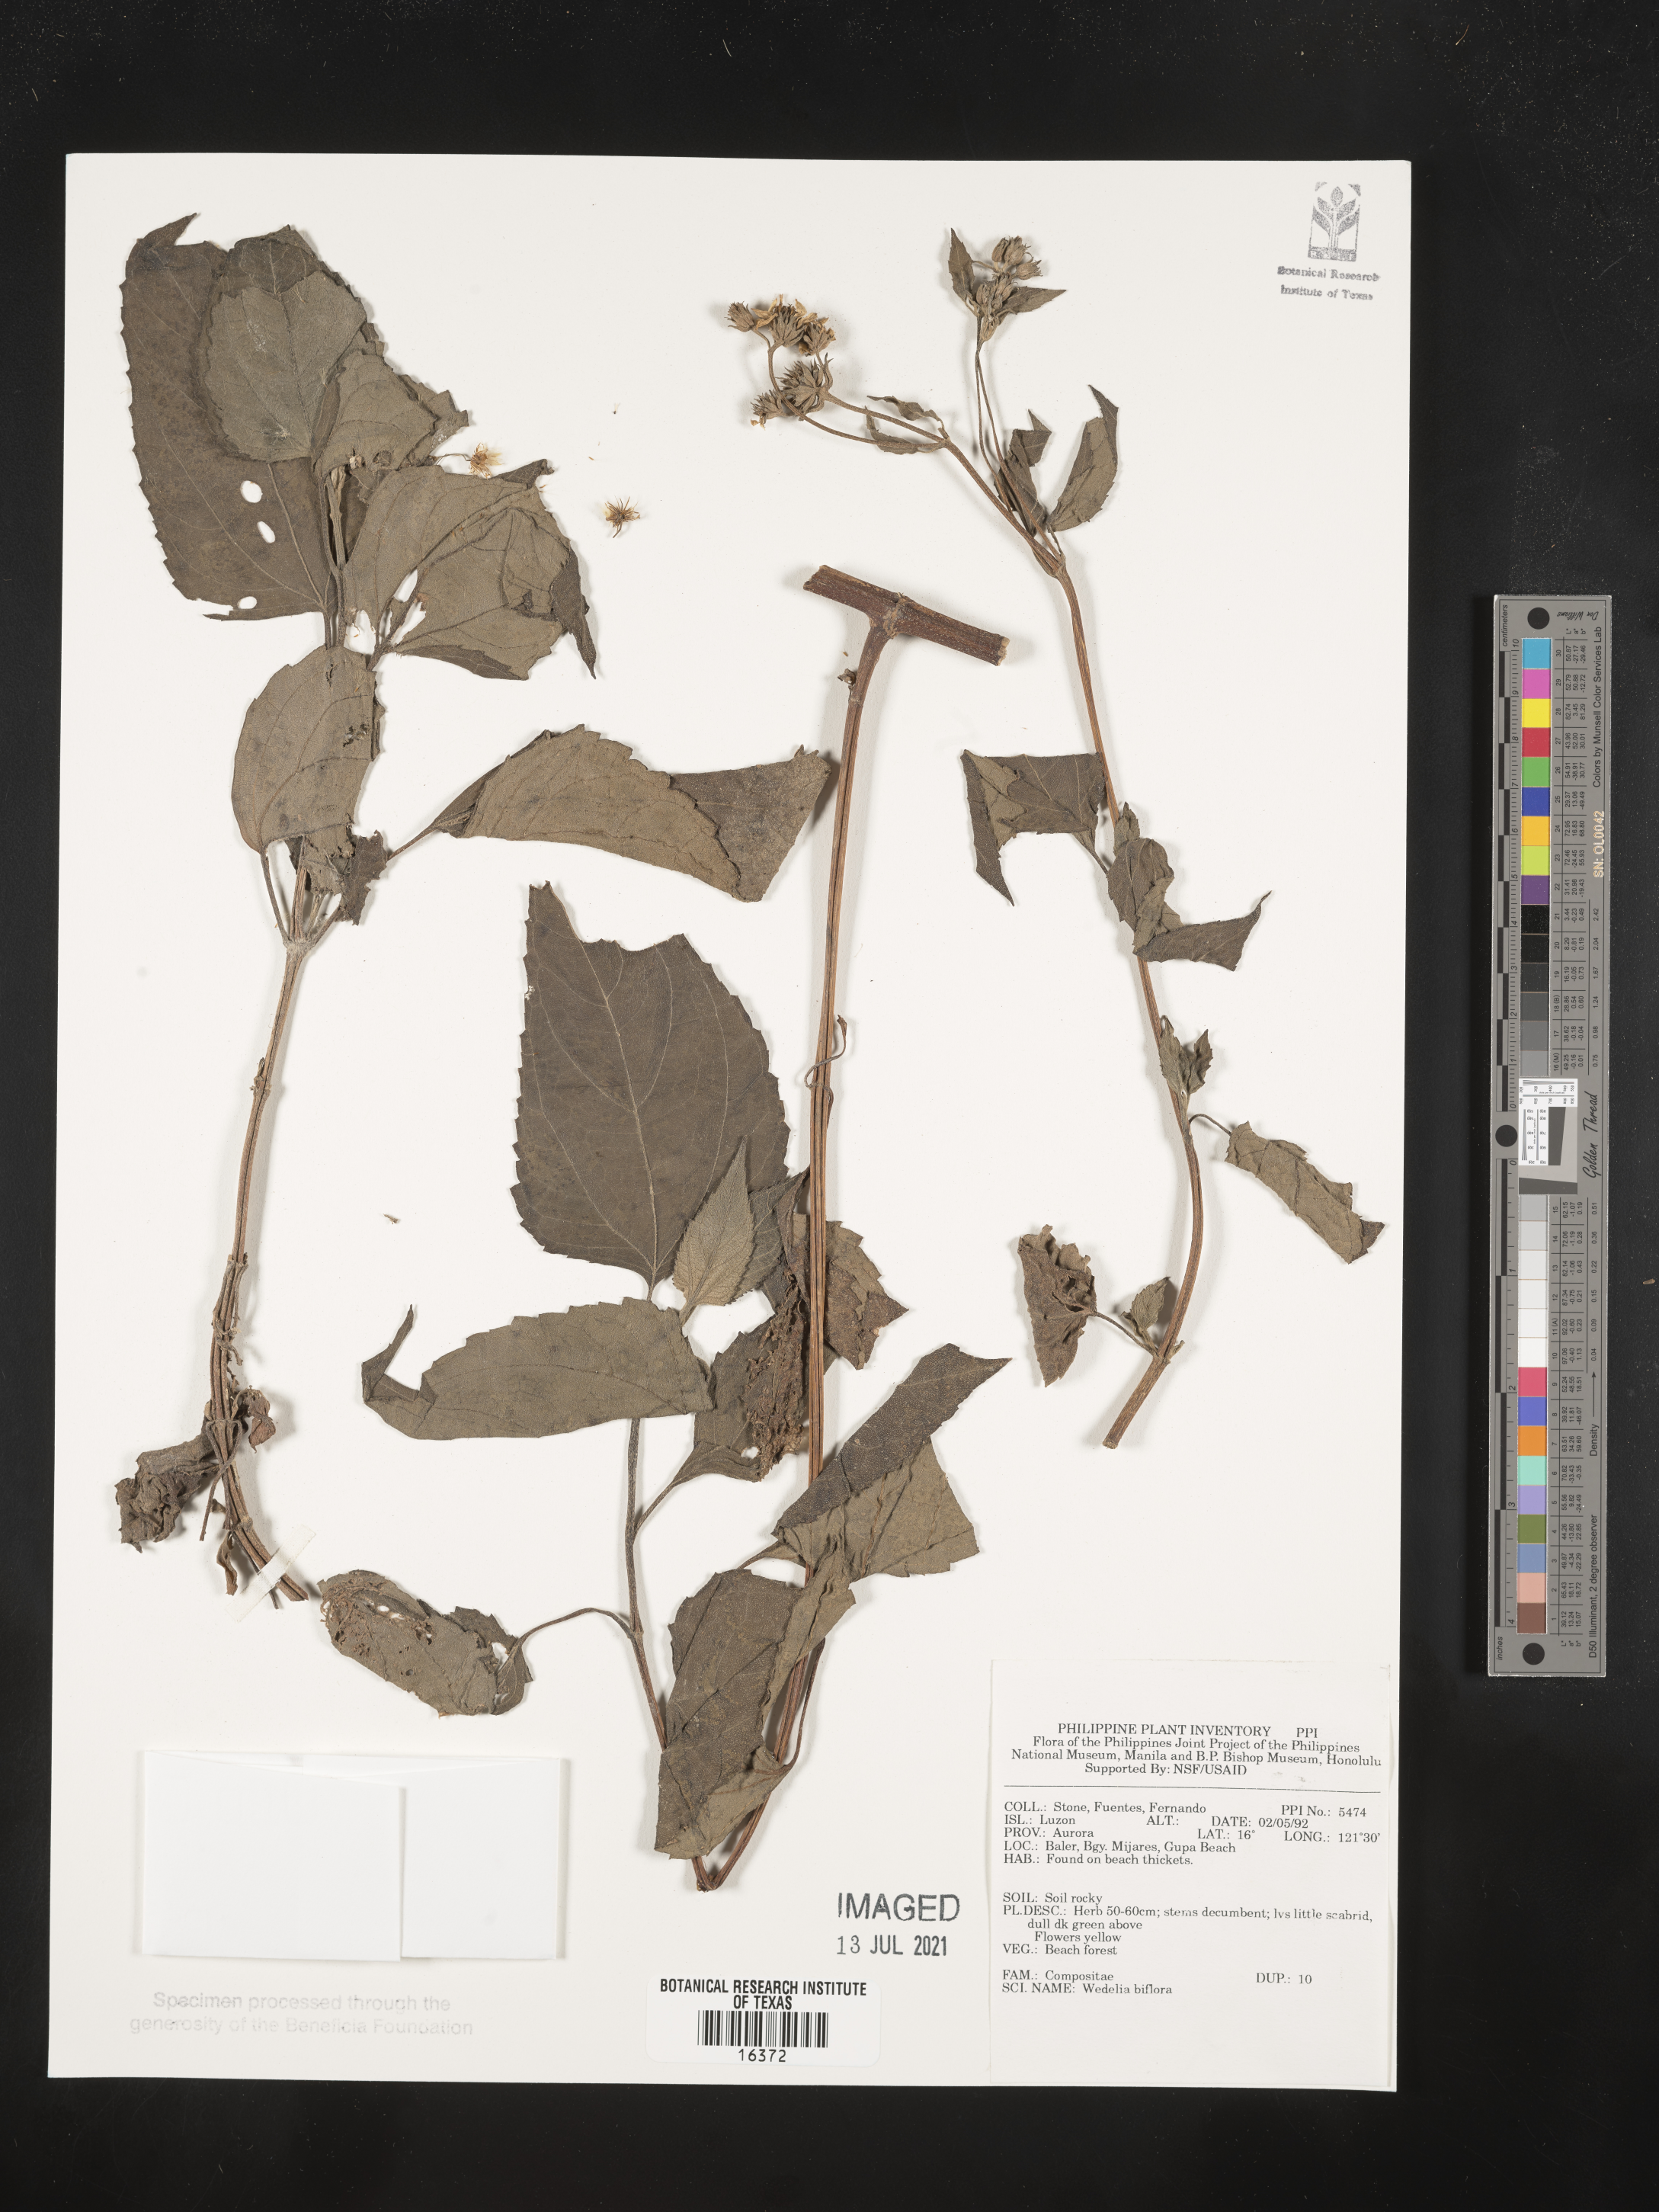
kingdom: Plantae
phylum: Tracheophyta
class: Magnoliopsida
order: Asterales
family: Asteraceae
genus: Wollastonia
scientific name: Wollastonia biflora
